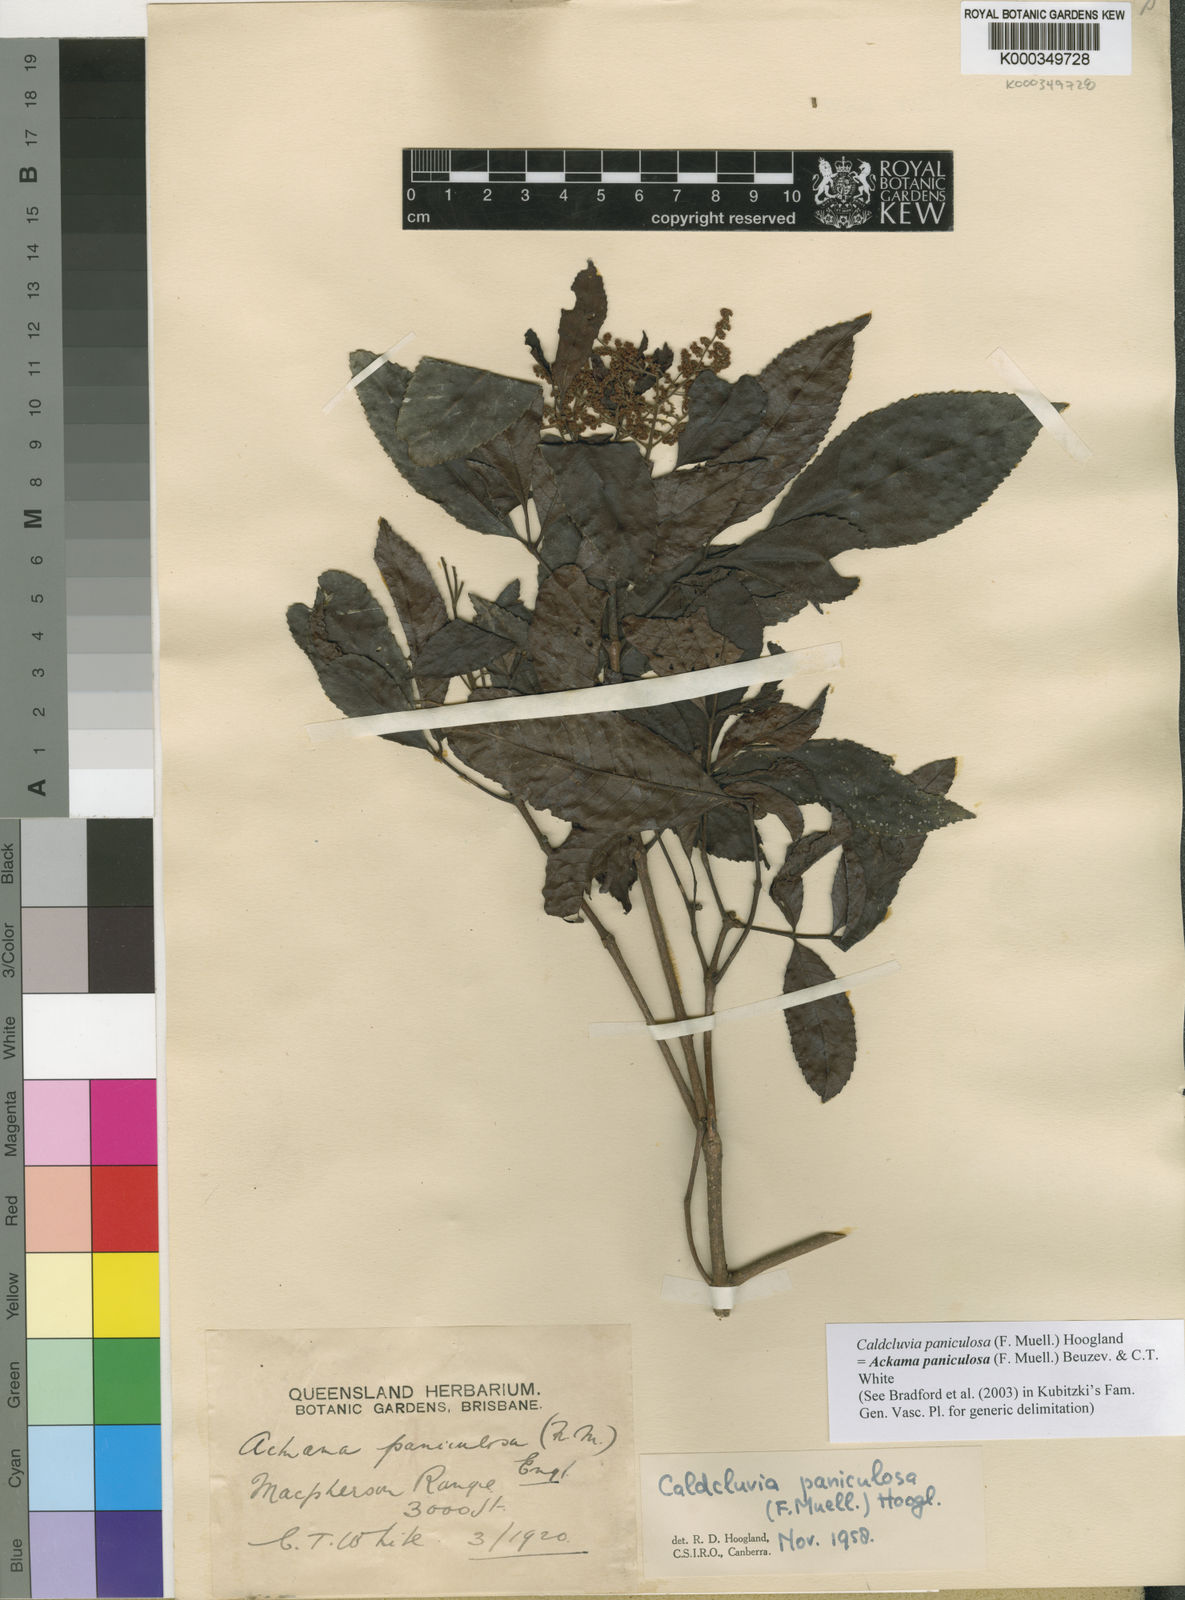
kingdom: Plantae
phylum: Tracheophyta
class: Magnoliopsida
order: Oxalidales
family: Cunoniaceae
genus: Ackama
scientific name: Ackama paniculosa
